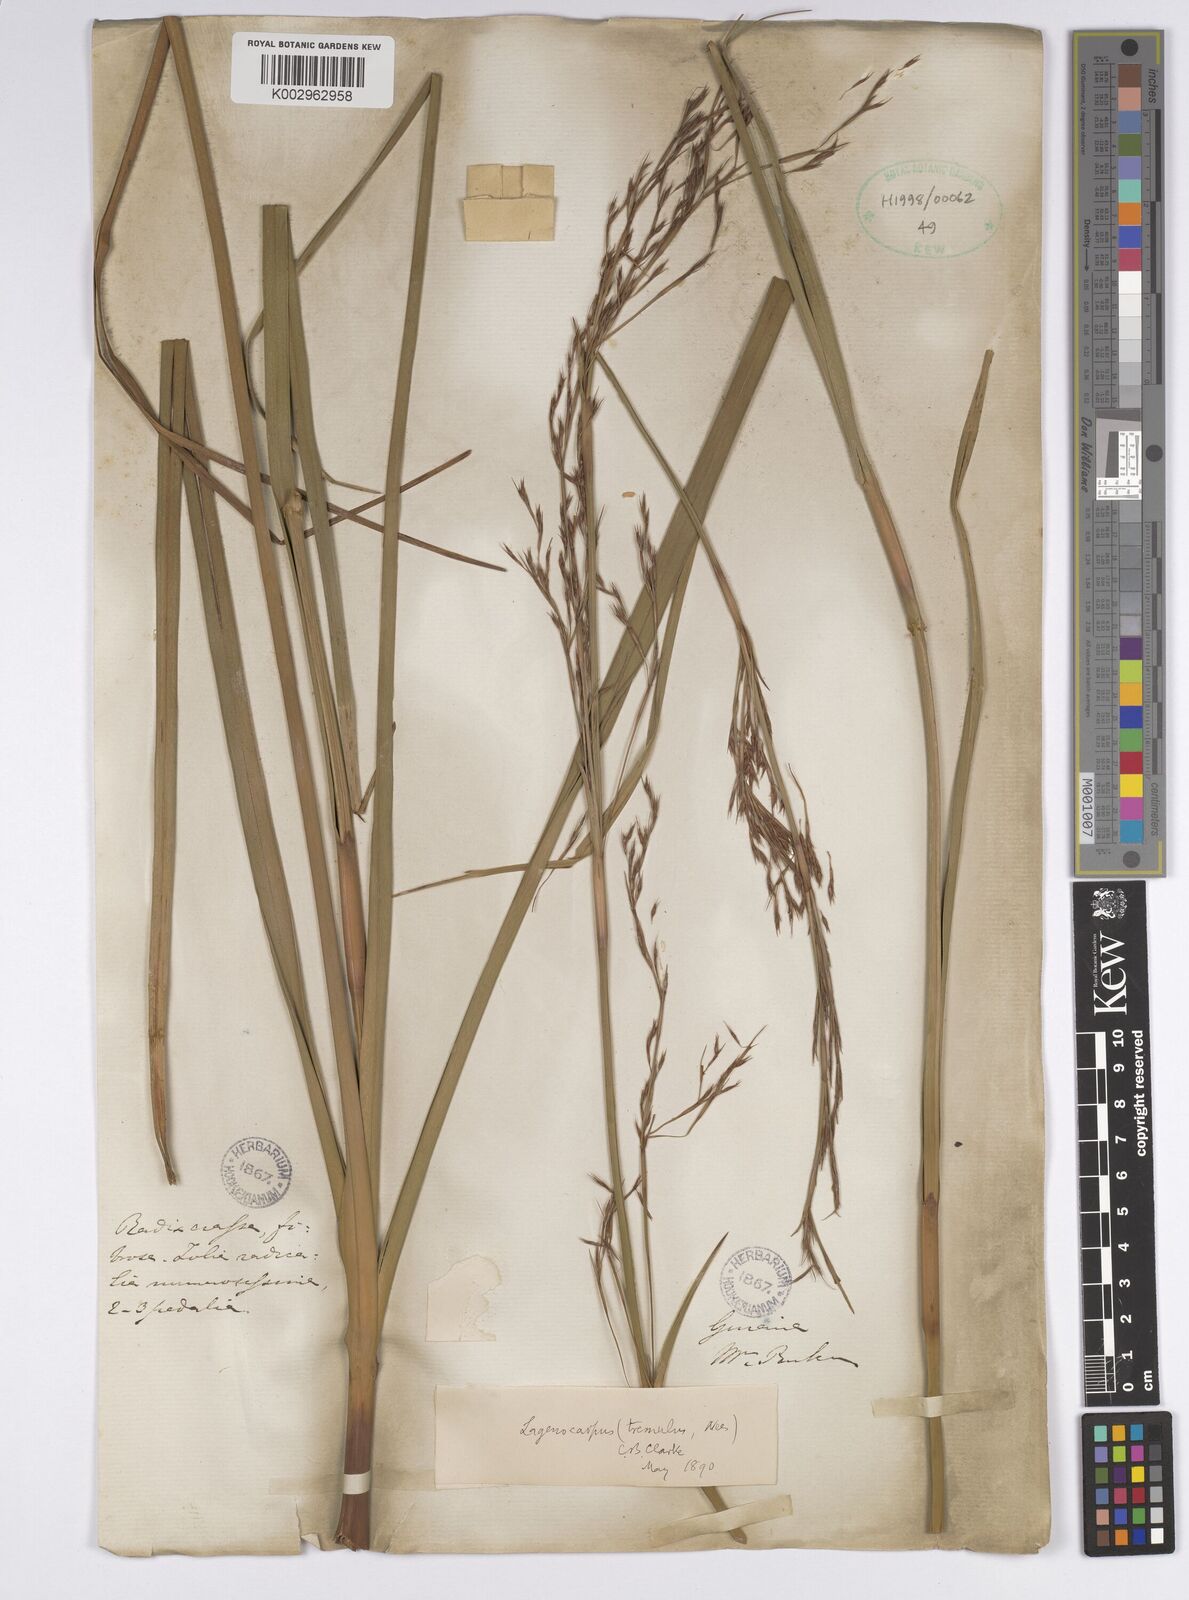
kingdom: Plantae
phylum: Tracheophyta
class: Liliopsida
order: Poales
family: Cyperaceae
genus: Lagenocarpus
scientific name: Lagenocarpus rigidus
